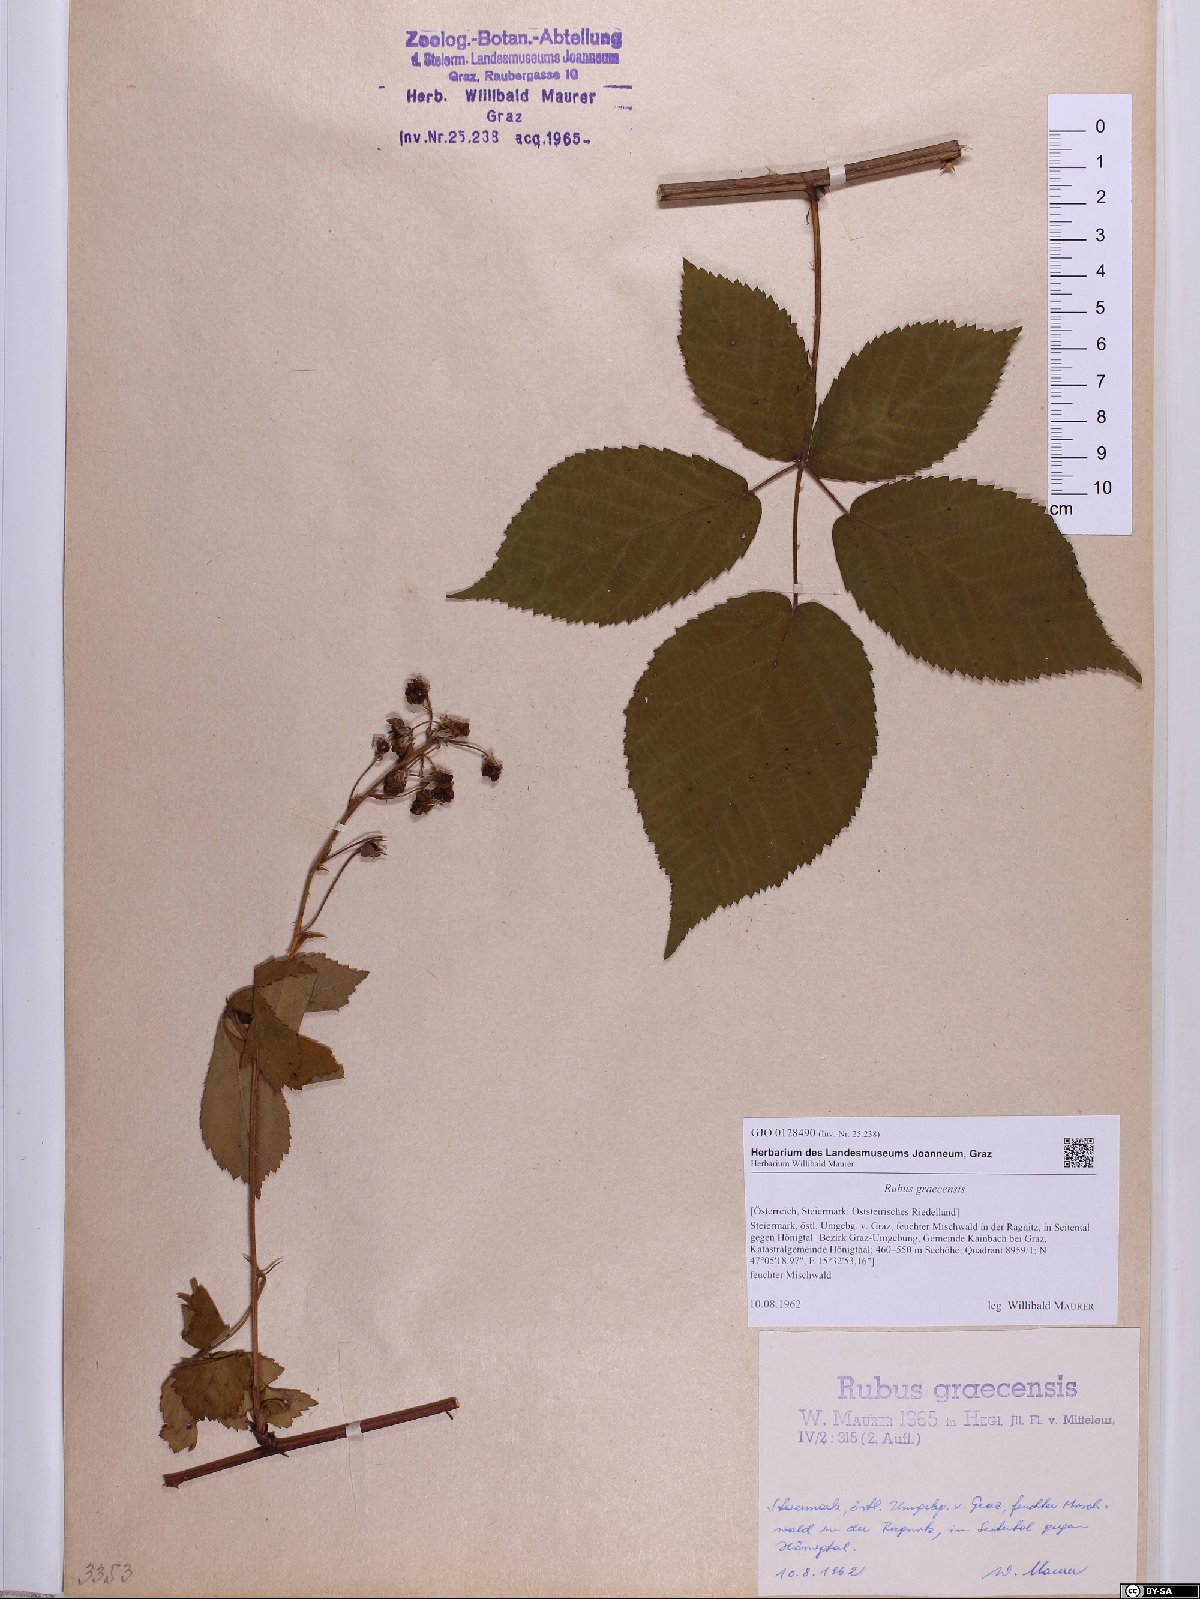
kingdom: Plantae
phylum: Tracheophyta
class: Magnoliopsida
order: Rosales
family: Rosaceae
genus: Rubus
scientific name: Rubus graecensis
